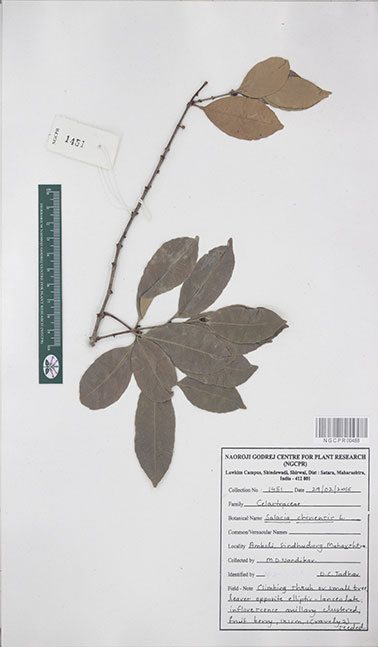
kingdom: Plantae
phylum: Tracheophyta
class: Magnoliopsida
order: Celastrales
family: Celastraceae
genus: Salacia
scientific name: Salacia chinensis
